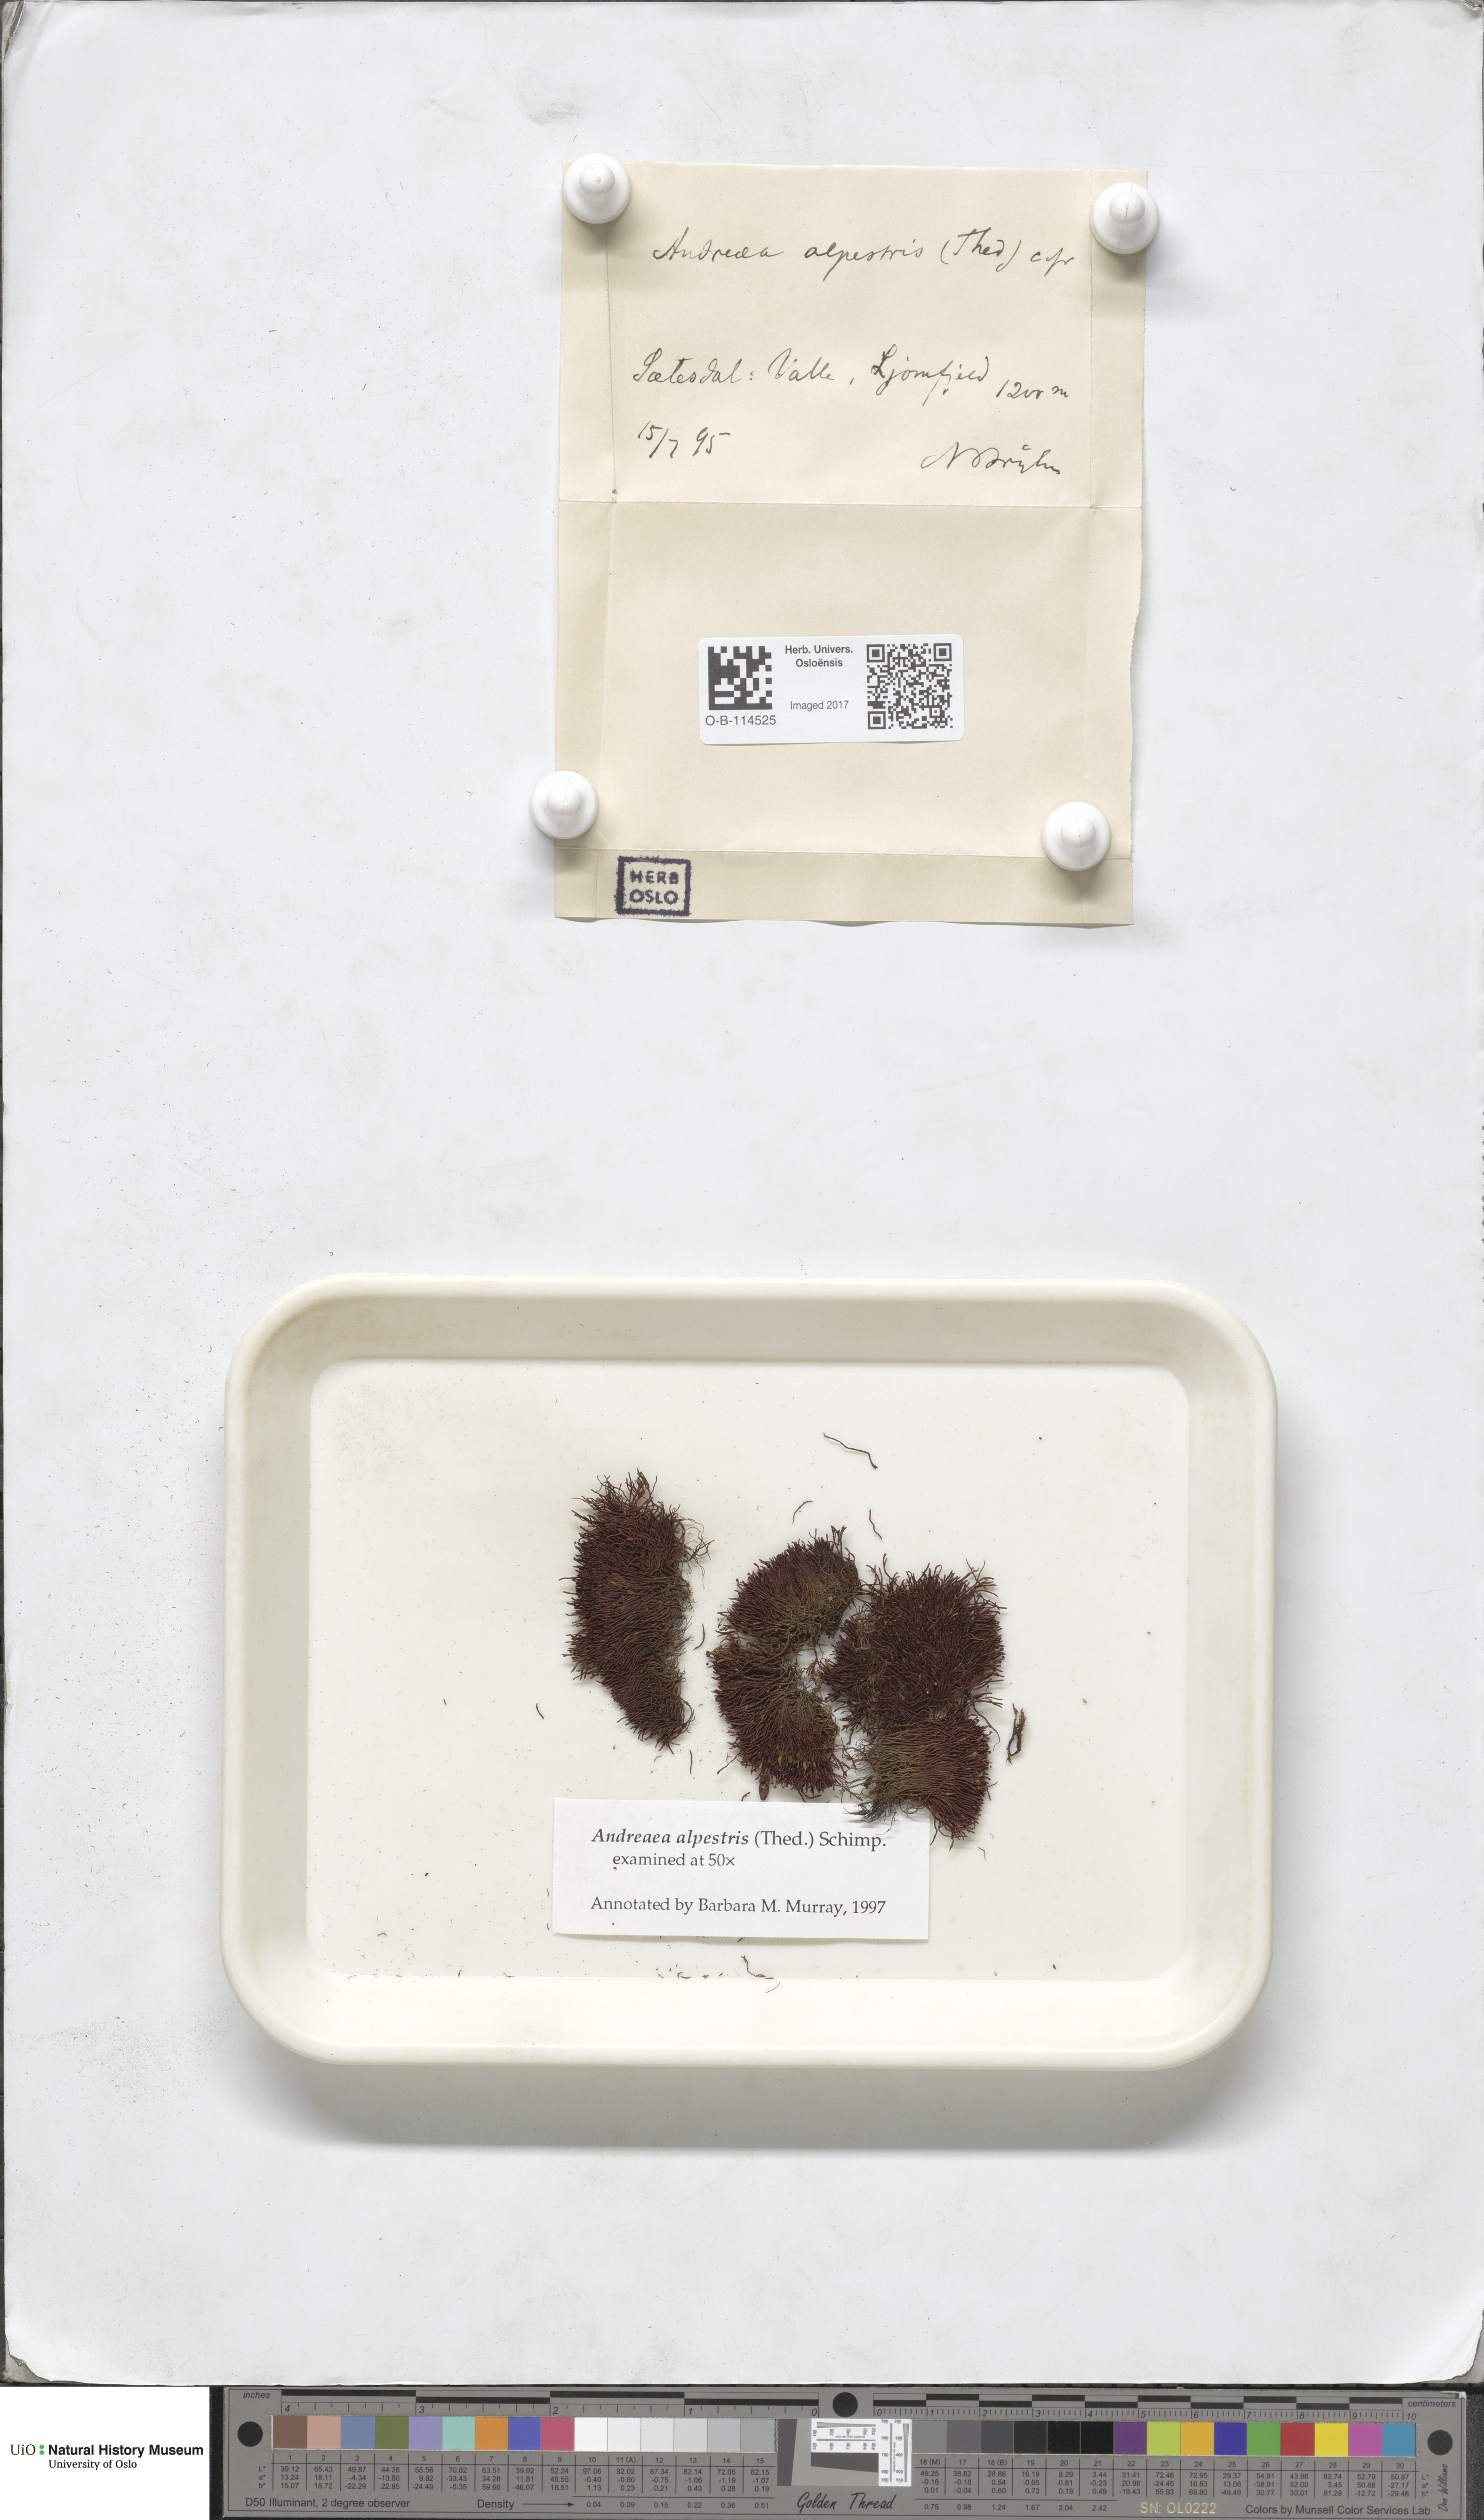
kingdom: Plantae
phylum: Bryophyta
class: Andreaeopsida
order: Andreaeales
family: Andreaeaceae
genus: Andreaea
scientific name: Andreaea alpestris
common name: Slender rock-moss
